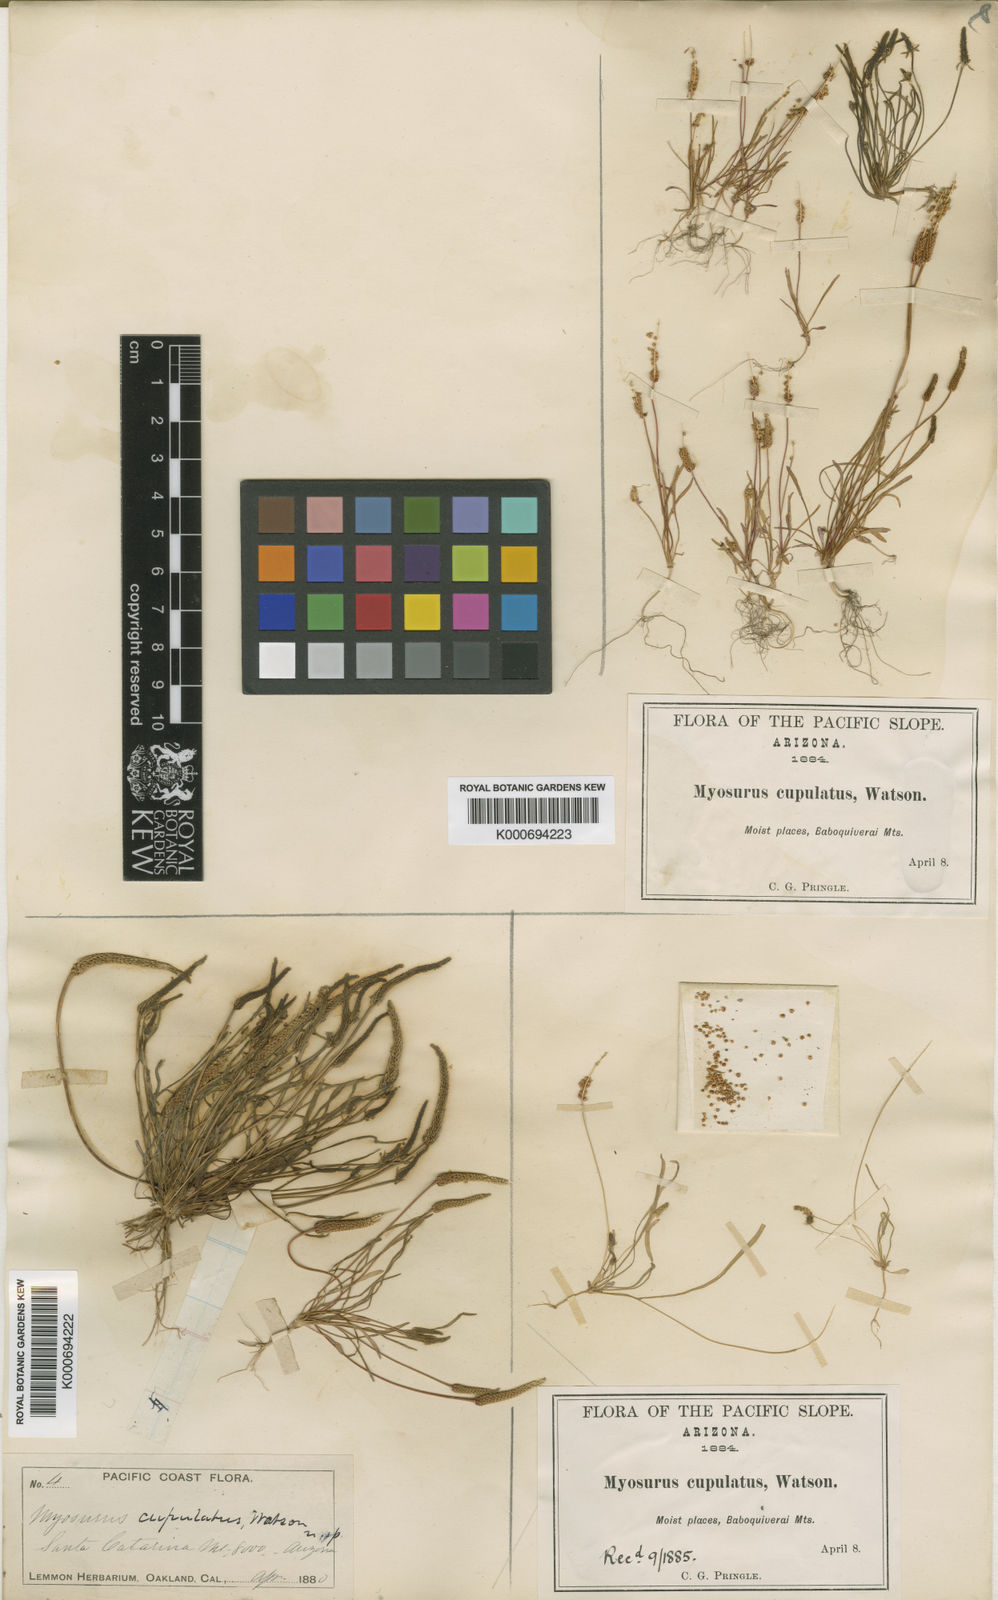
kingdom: Plantae
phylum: Tracheophyta
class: Magnoliopsida
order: Ranunculales
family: Ranunculaceae
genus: Myosurus
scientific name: Myosurus cupulatus
